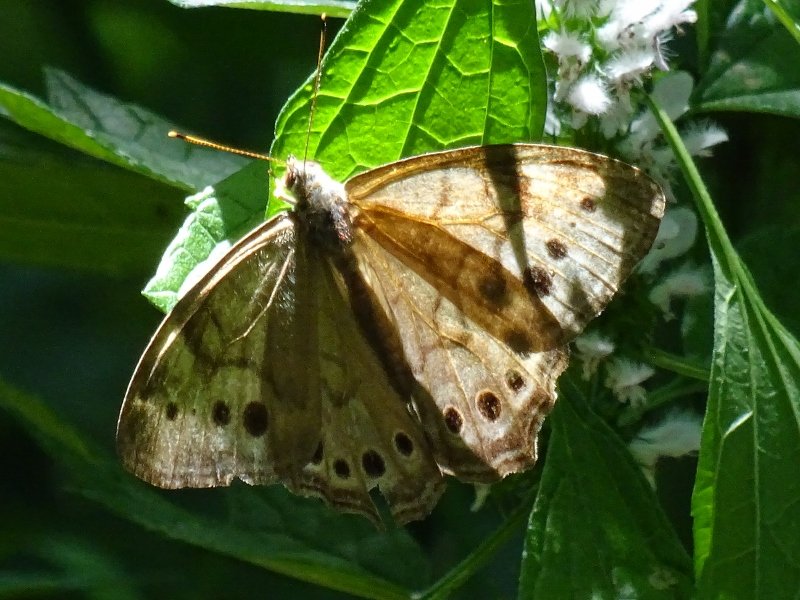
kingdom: Animalia
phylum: Arthropoda
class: Insecta
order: Lepidoptera
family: Nymphalidae
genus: Lethe
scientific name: Lethe anthedon
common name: Northern Pearly-Eye
